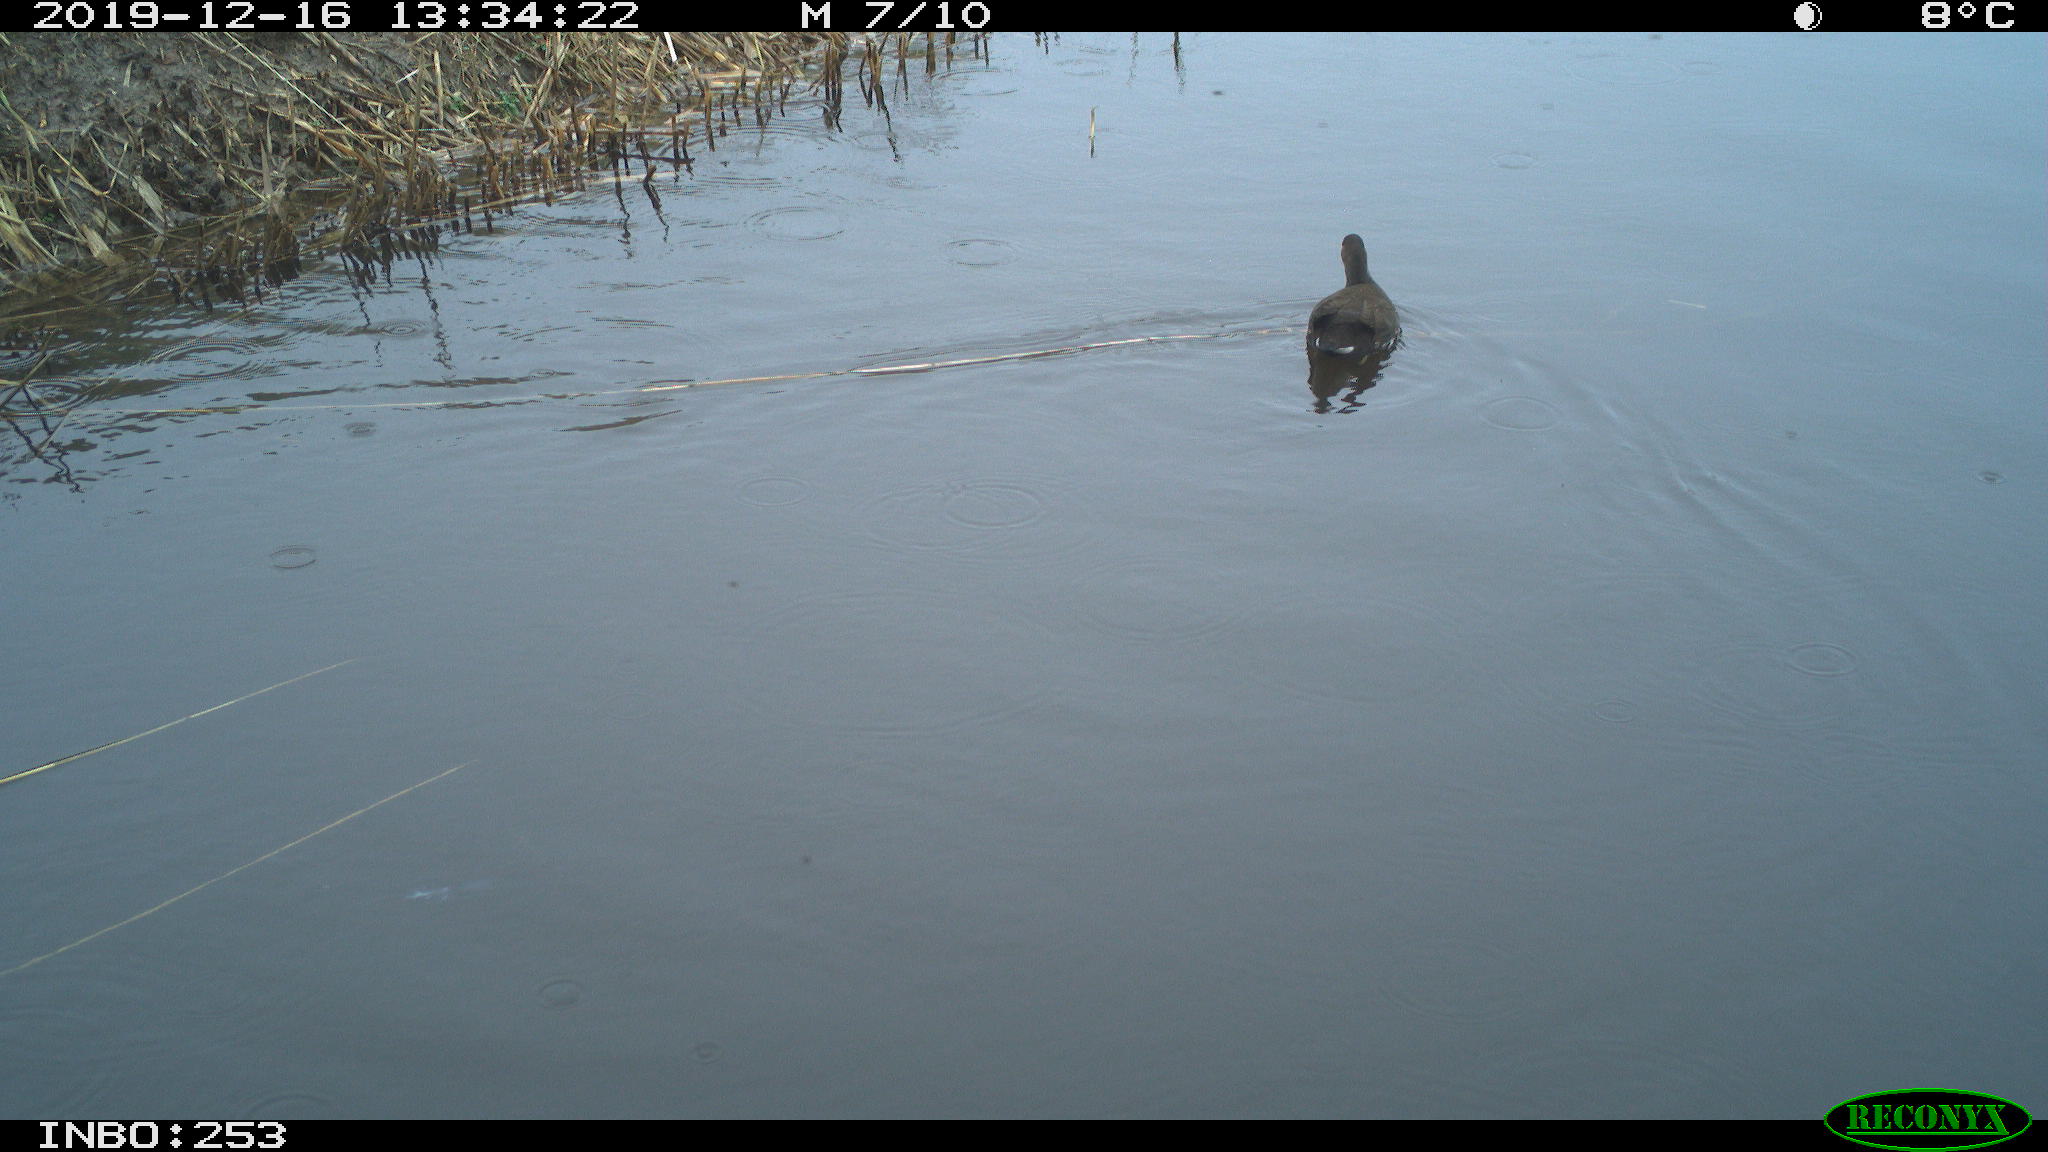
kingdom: Animalia
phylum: Chordata
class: Aves
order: Gruiformes
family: Rallidae
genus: Gallinula
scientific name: Gallinula chloropus
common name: Common moorhen
